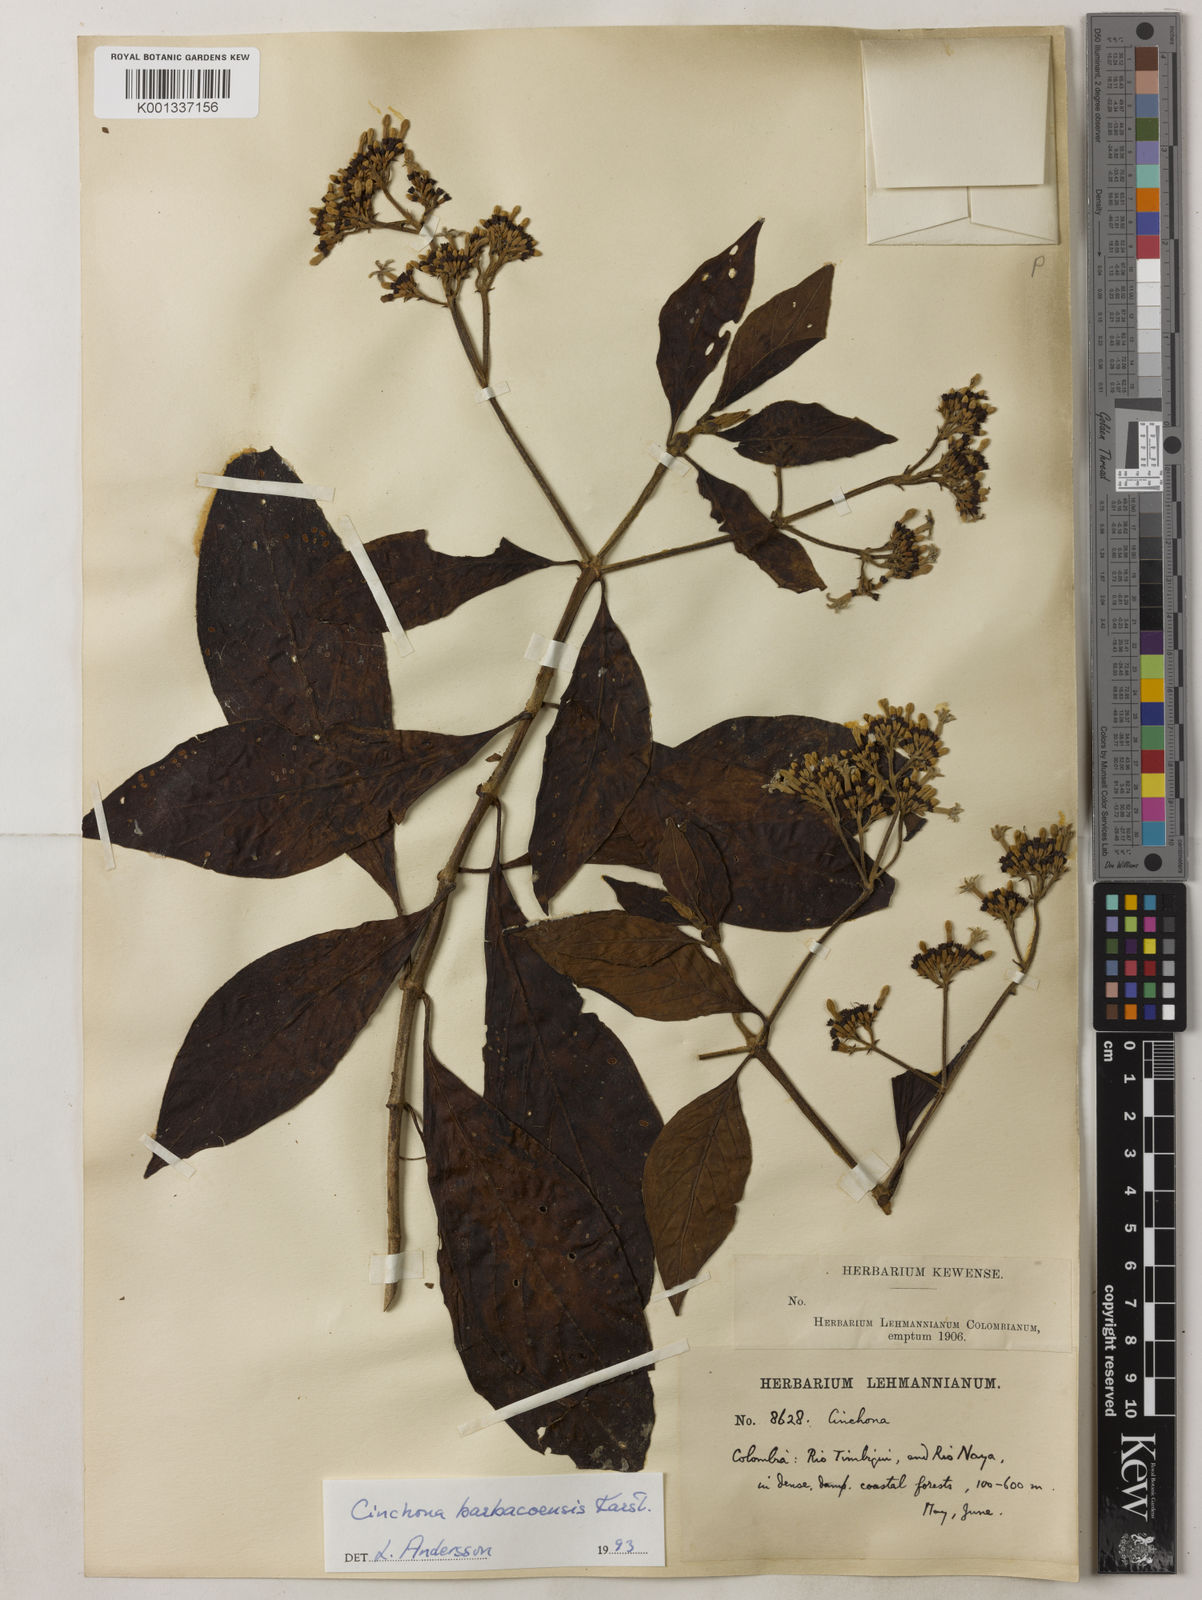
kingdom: Plantae
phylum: Tracheophyta
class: Magnoliopsida
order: Gentianales
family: Rubiaceae
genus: Cinchona
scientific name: Cinchona barbacoensis
